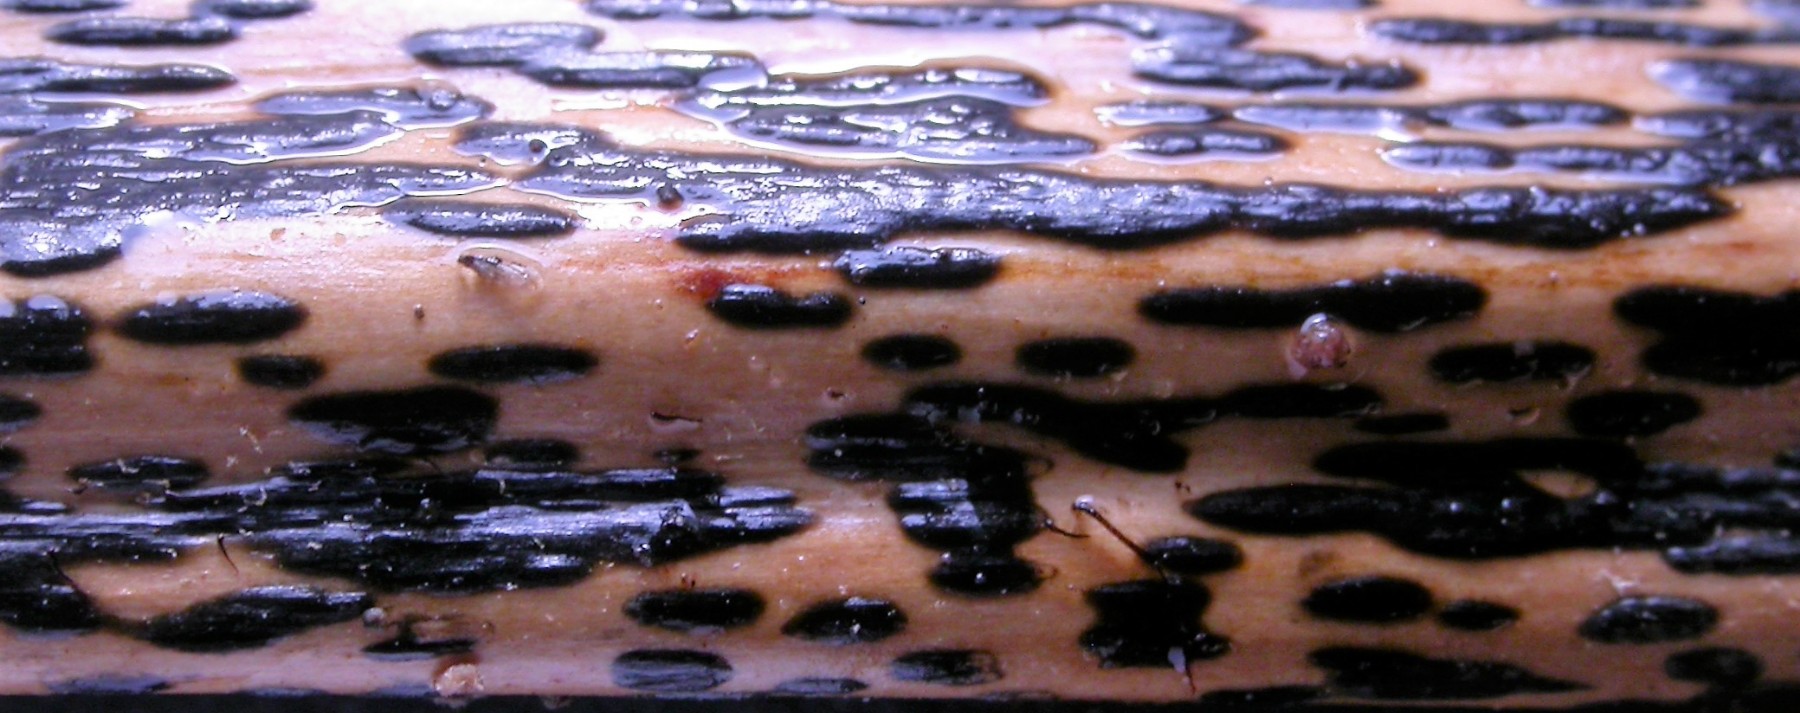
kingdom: Fungi
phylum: Ascomycota
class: Dothideomycetes
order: Pleosporales
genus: Rhopographus
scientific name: Rhopographus filicinus
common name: Bracken map
